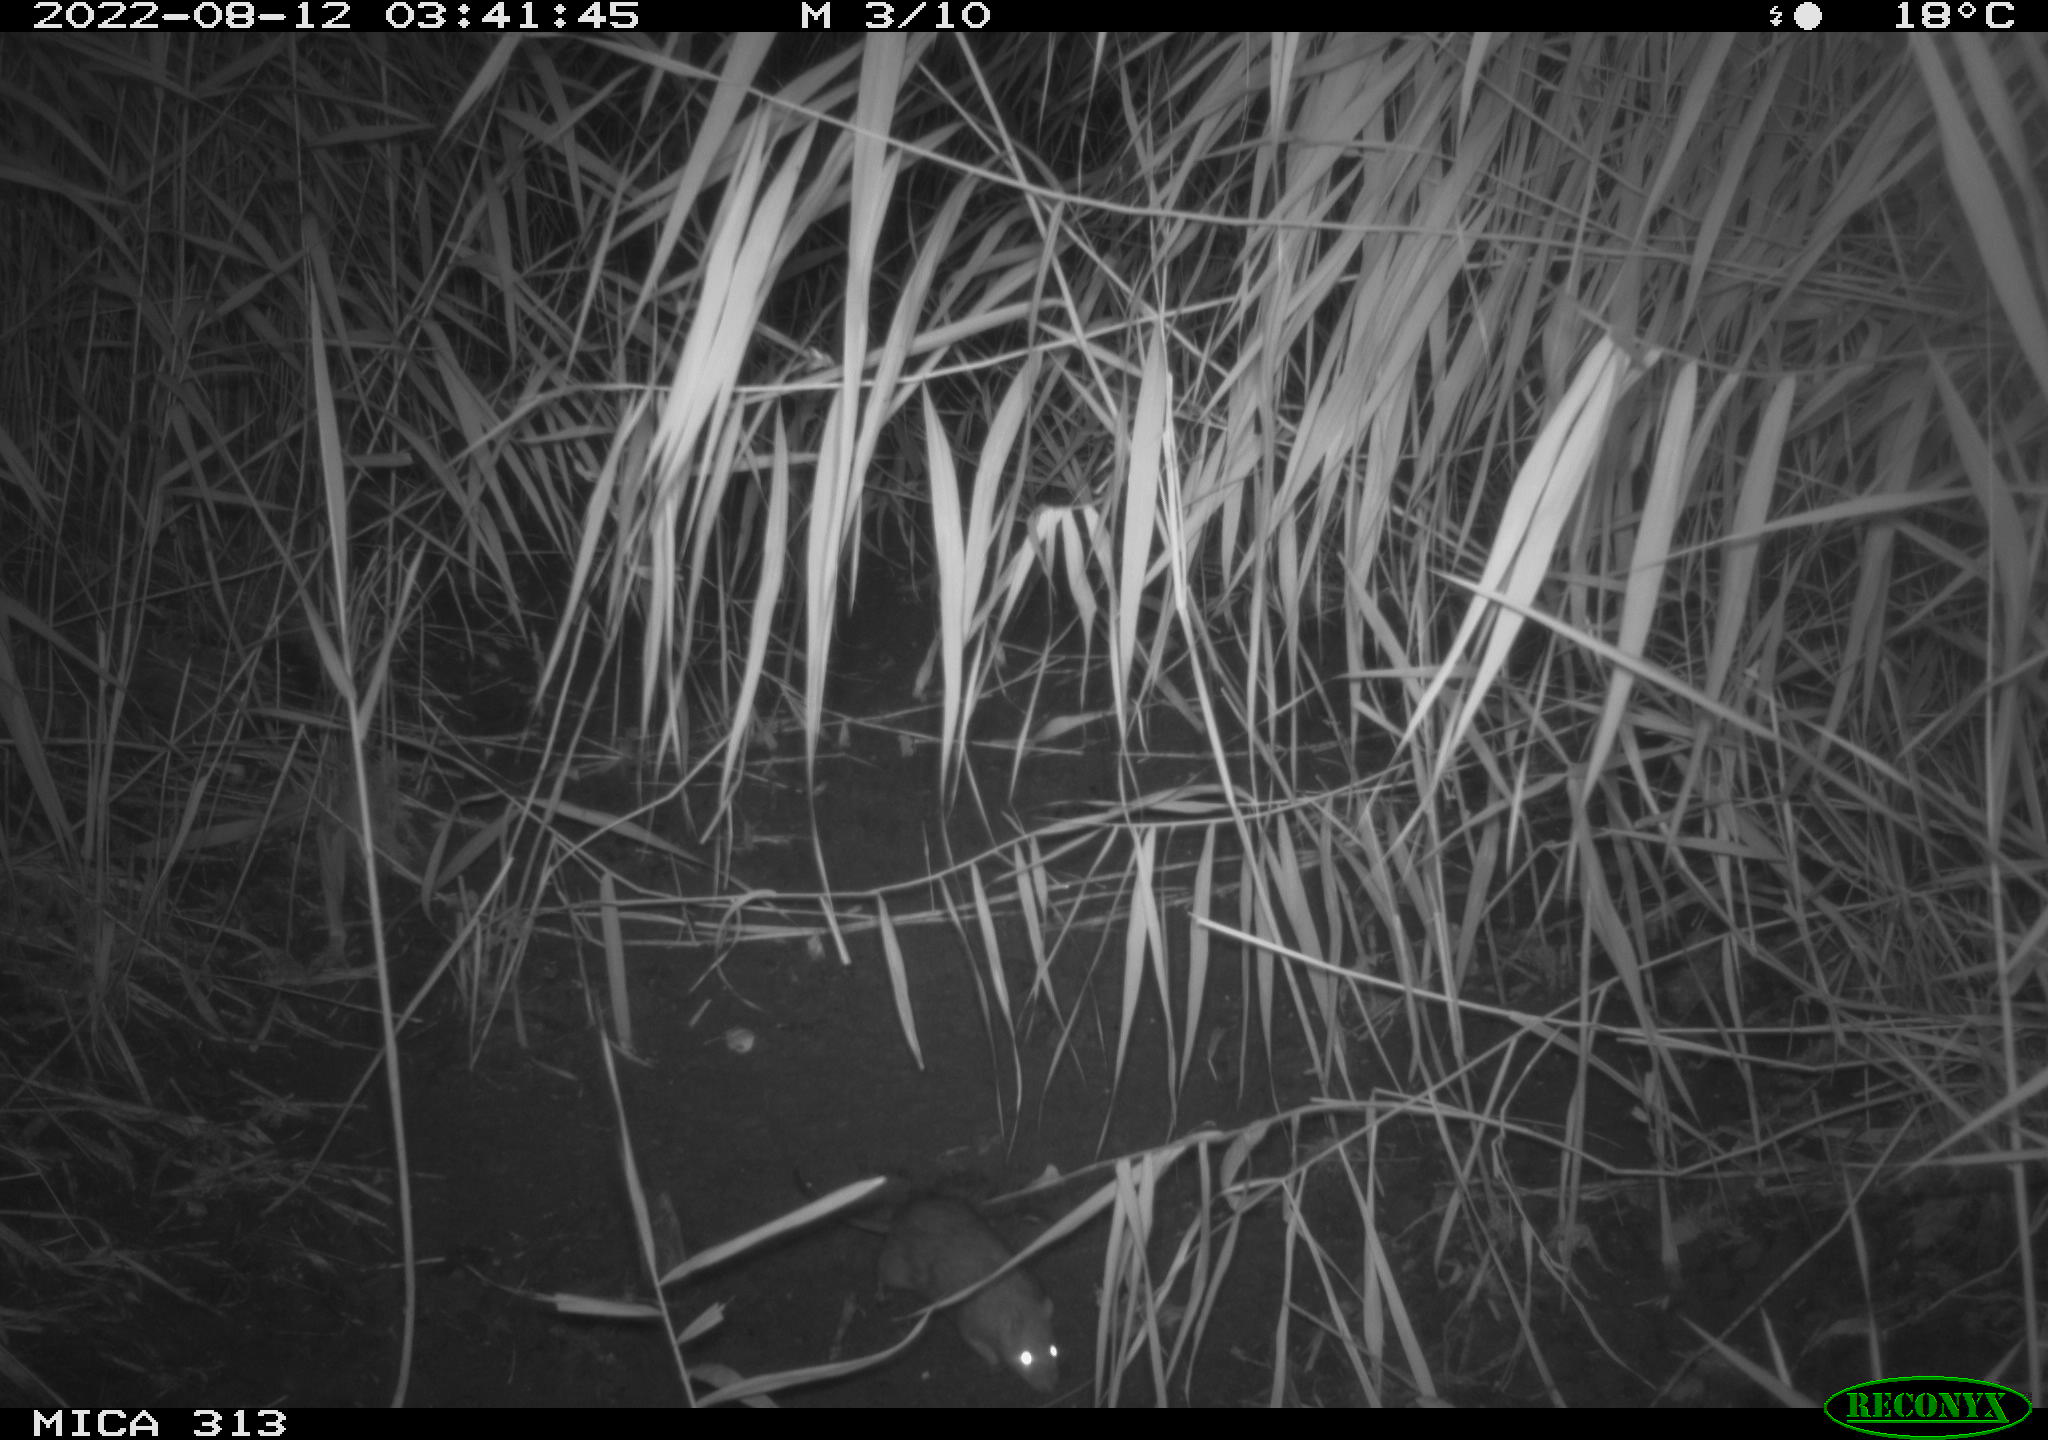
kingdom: Animalia
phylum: Chordata
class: Mammalia
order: Rodentia
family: Muridae
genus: Rattus
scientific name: Rattus norvegicus
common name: Brown rat
